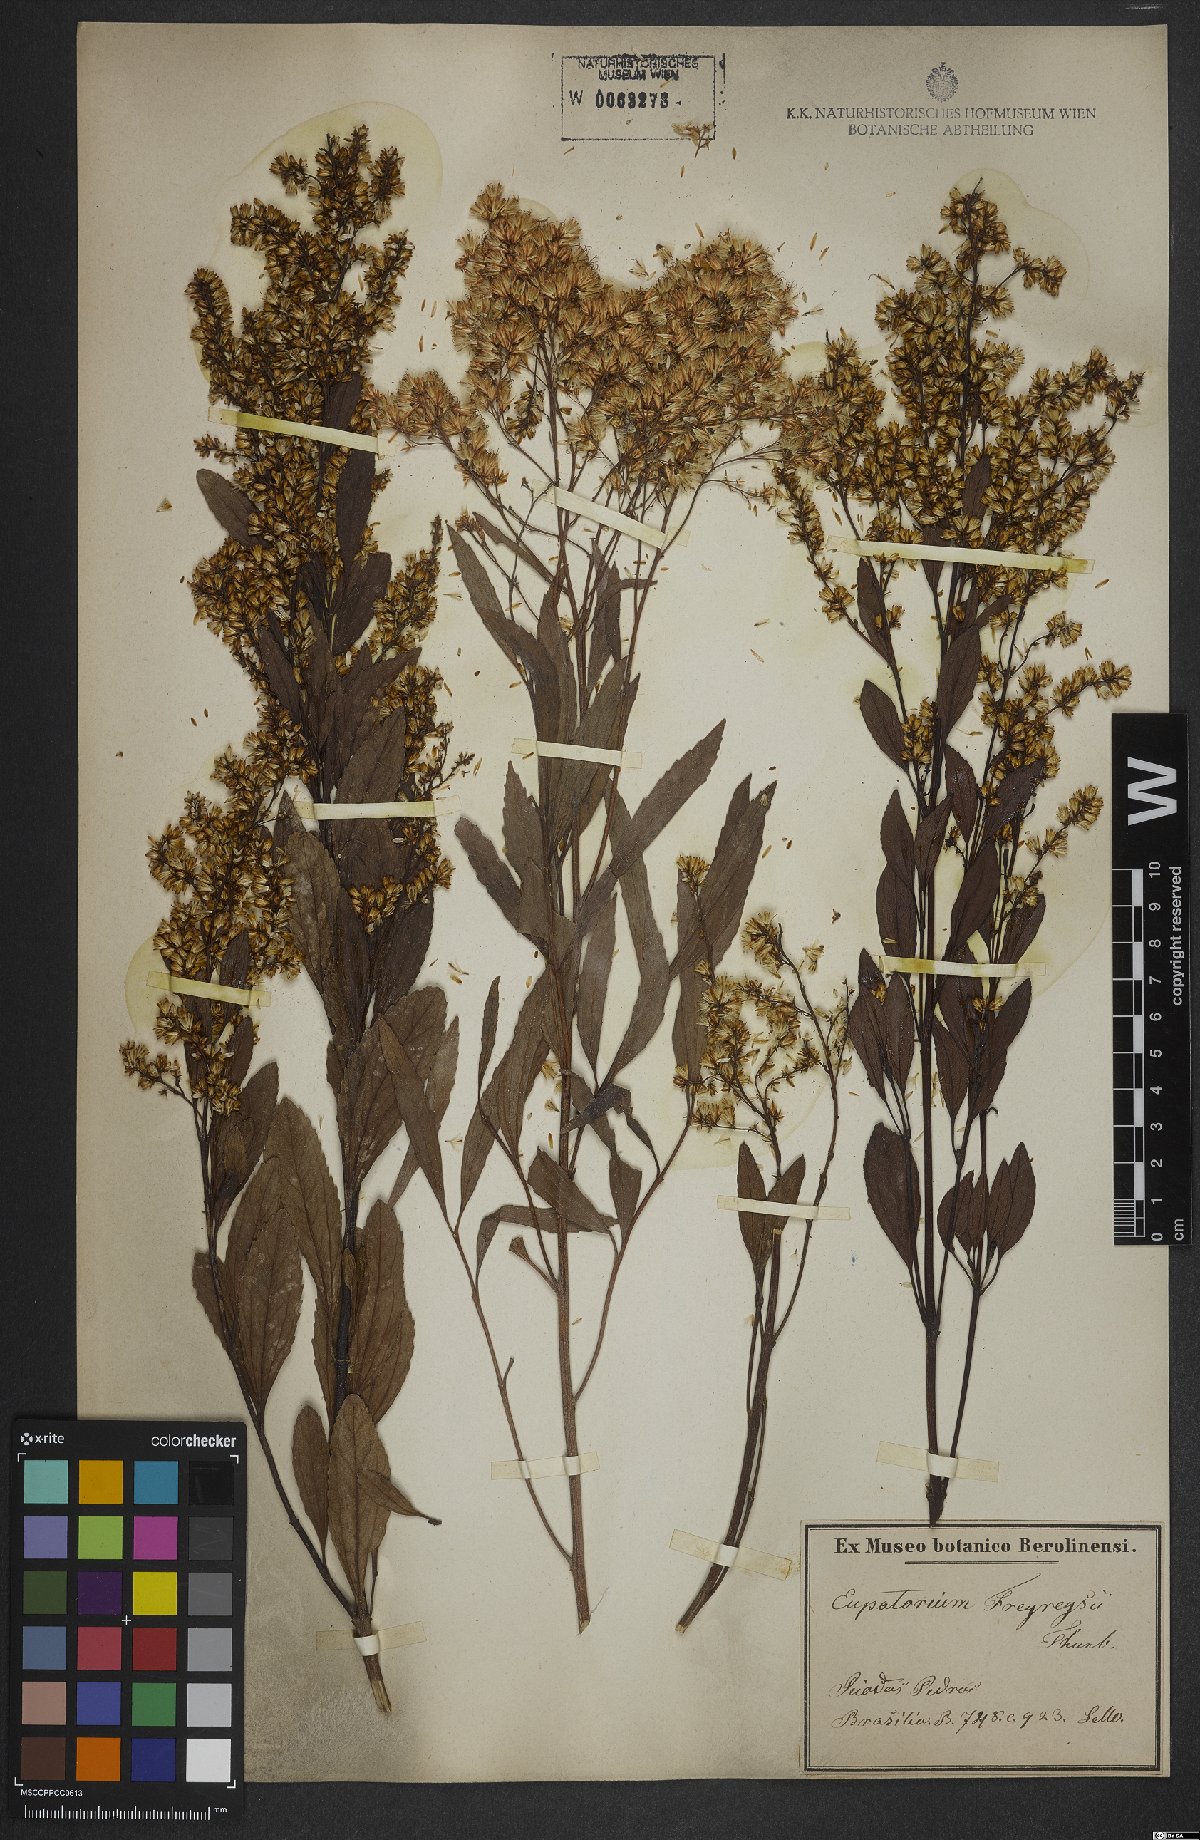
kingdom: Plantae
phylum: Tracheophyta
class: Magnoliopsida
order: Asterales
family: Asteraceae
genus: Ophryosporus
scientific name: Ophryosporus freyreysi
